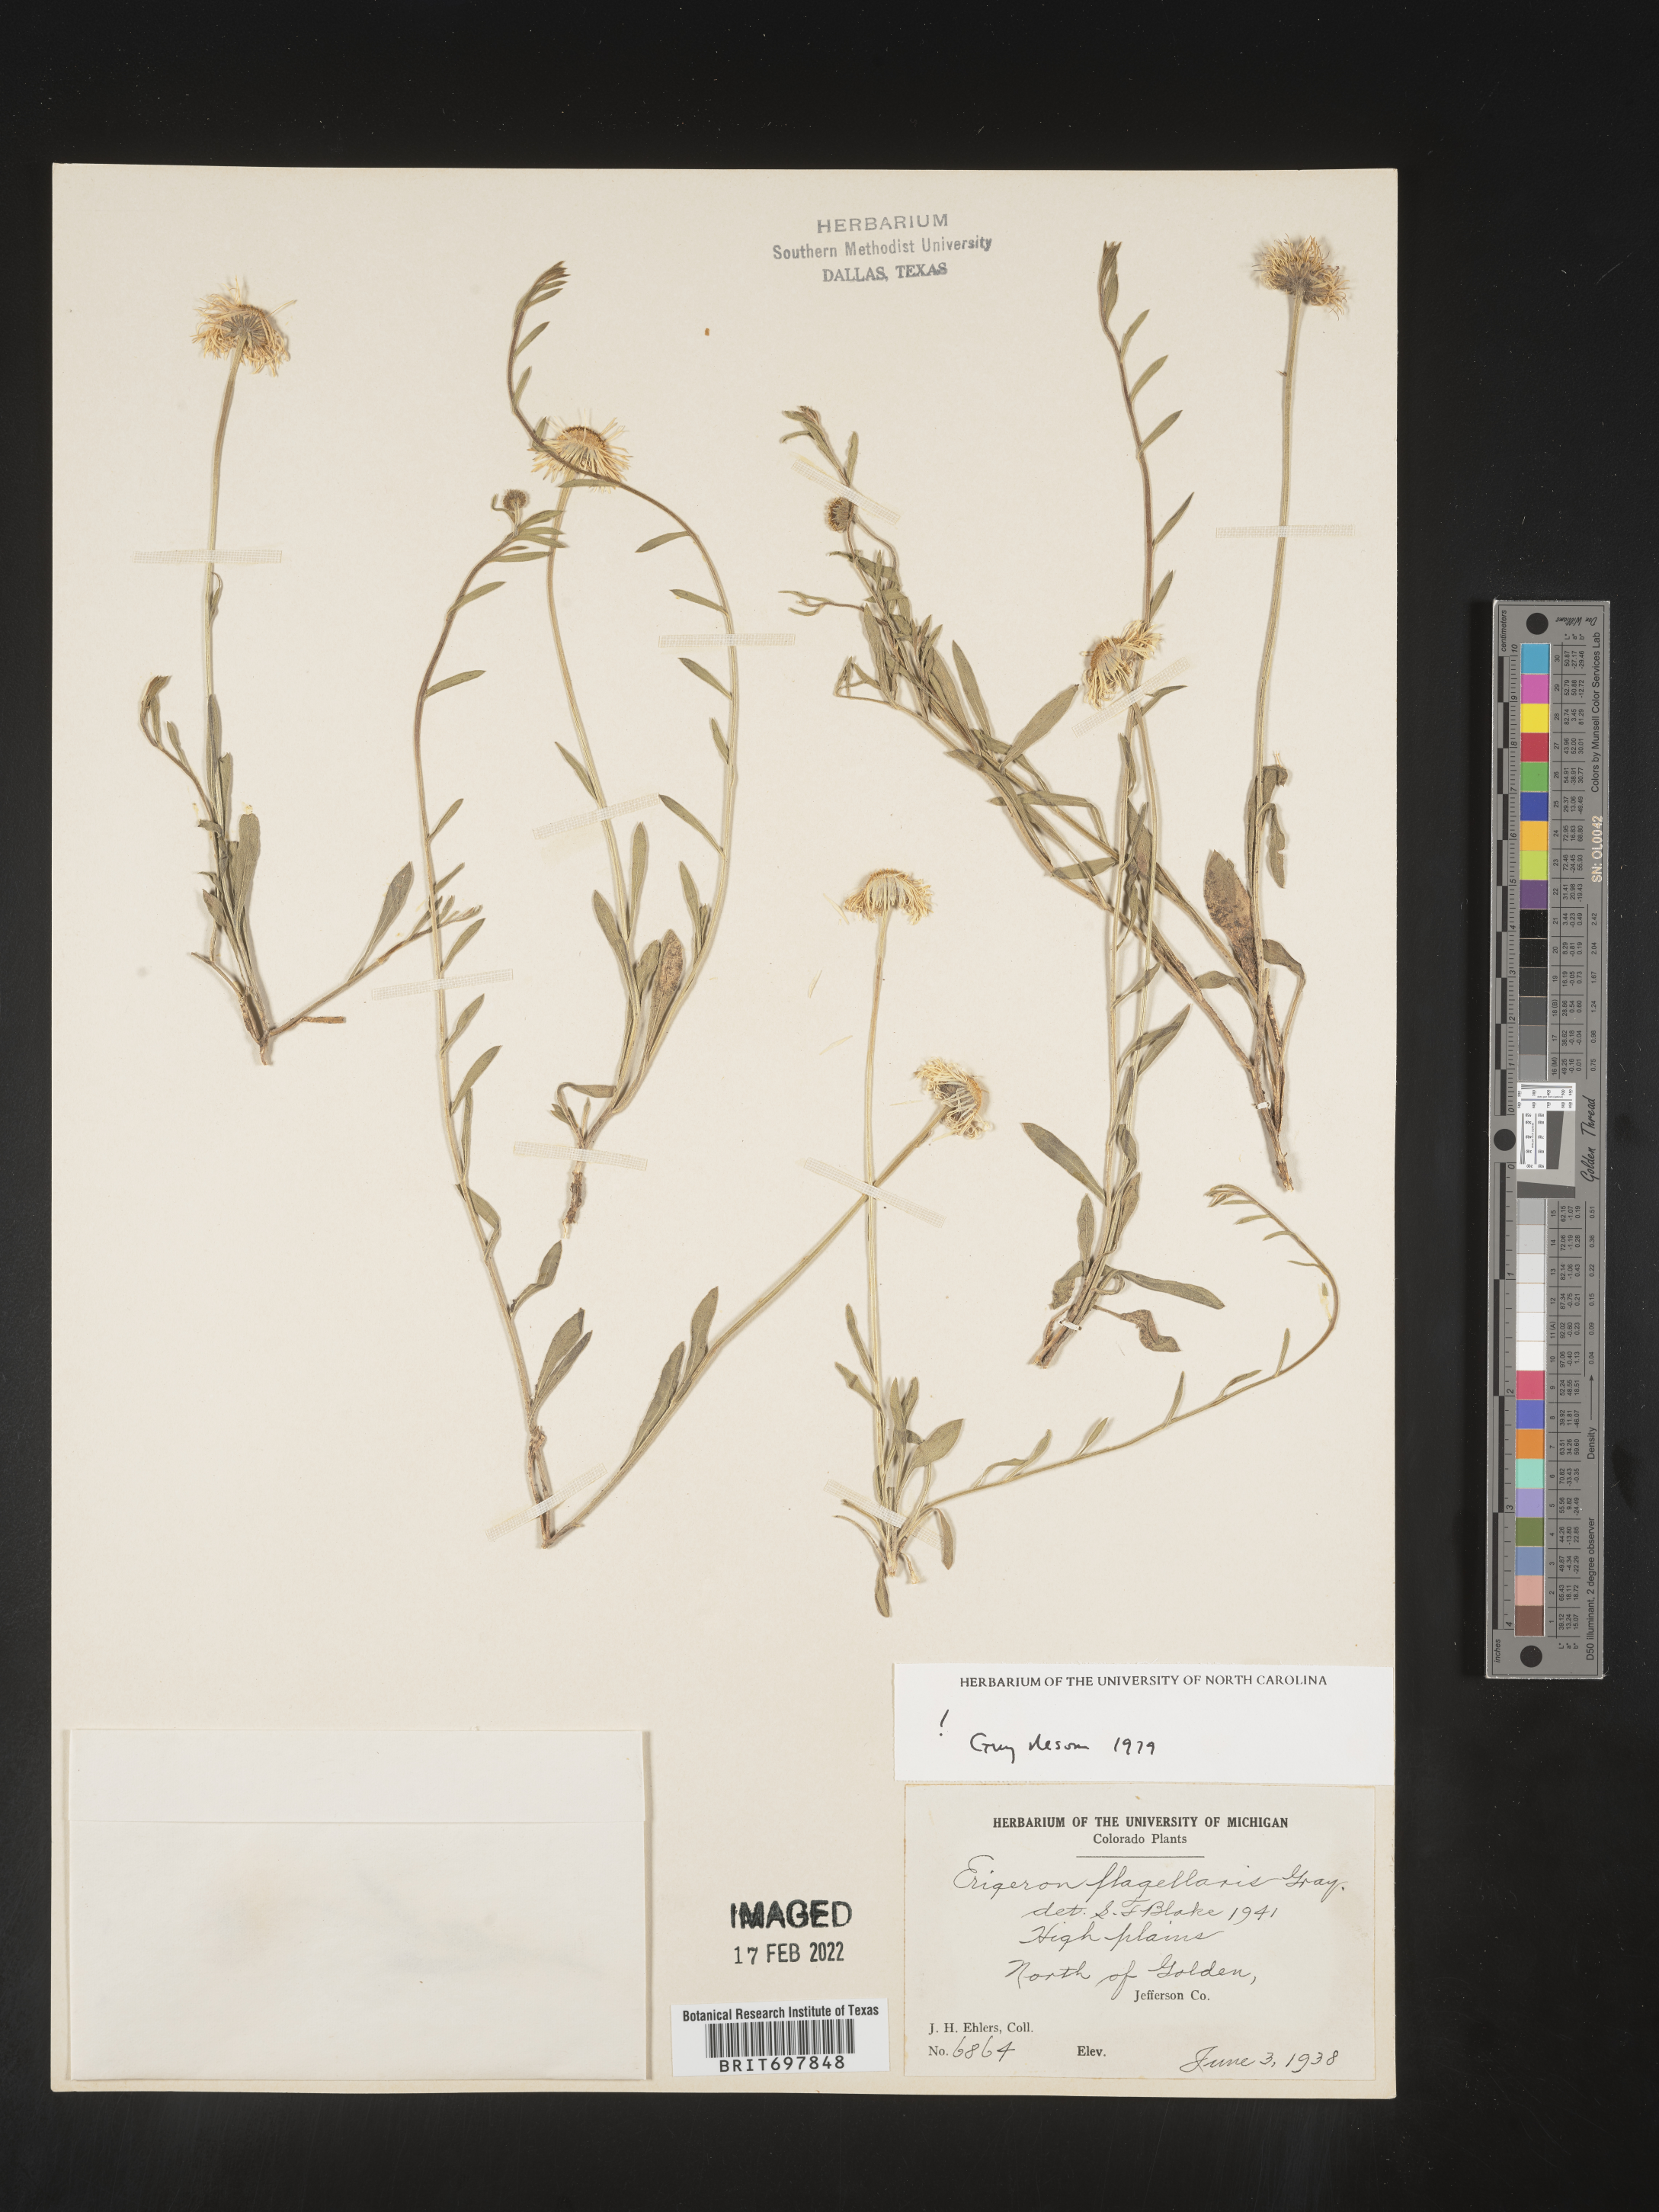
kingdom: Plantae
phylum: Tracheophyta
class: Magnoliopsida
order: Asterales
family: Asteraceae
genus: Erigeron
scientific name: Erigeron flagellaris
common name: Running fleabane
